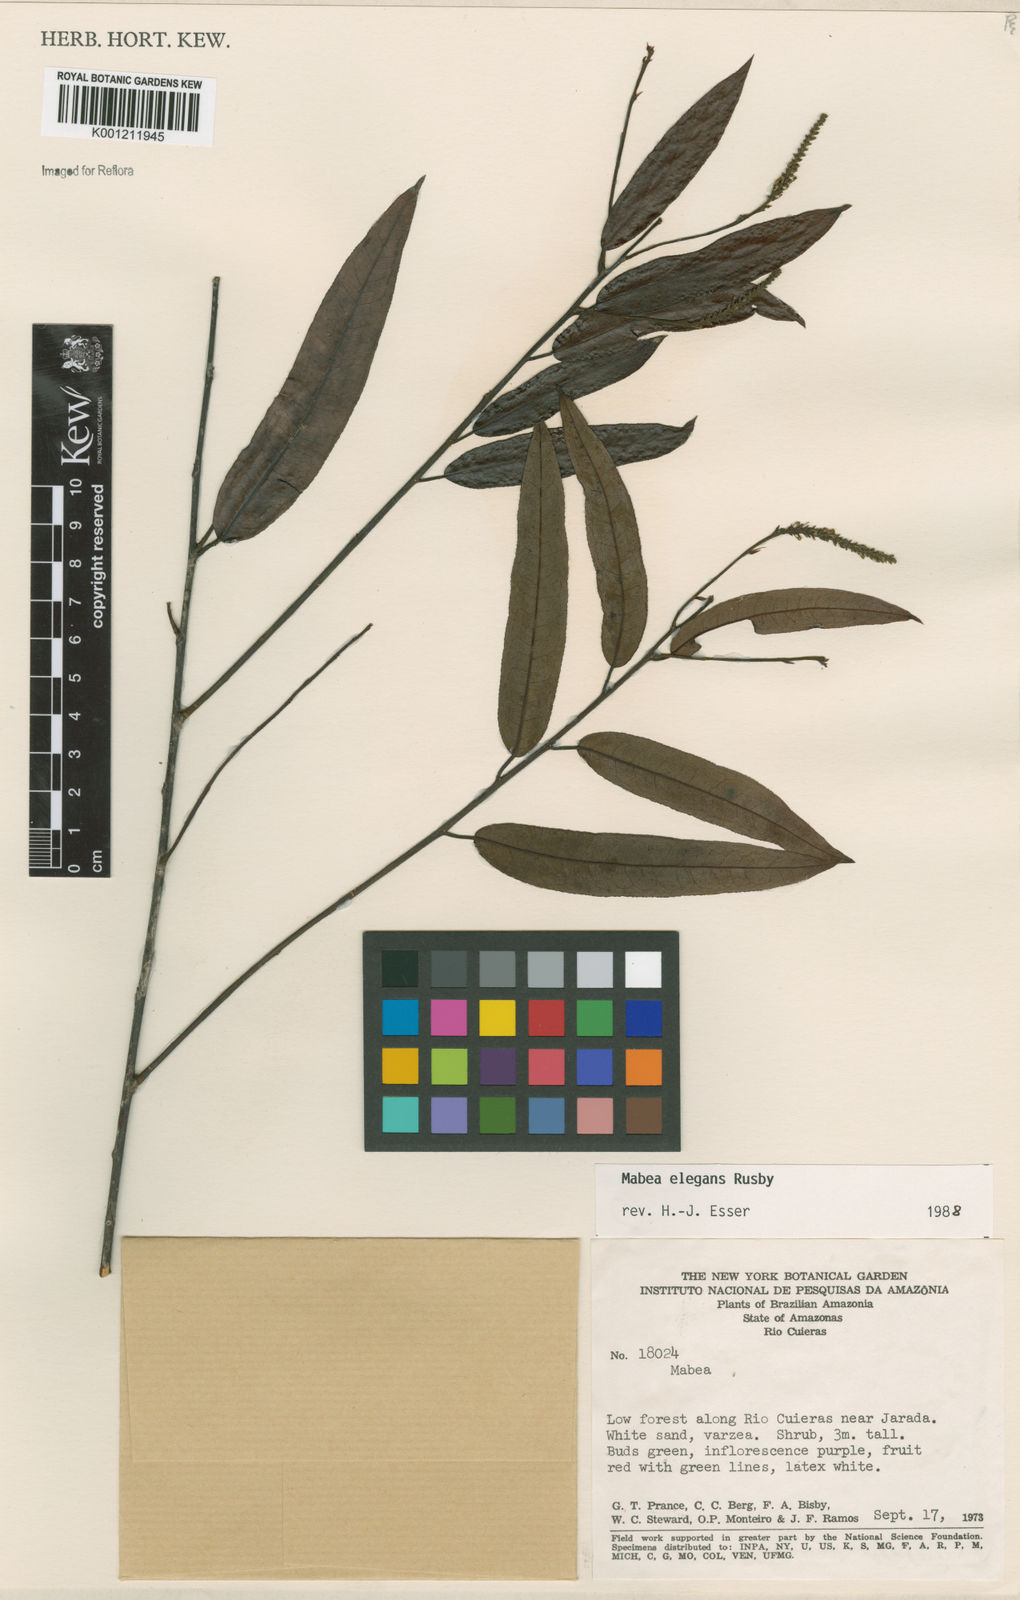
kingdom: Plantae
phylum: Tracheophyta
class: Magnoliopsida
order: Malpighiales
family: Euphorbiaceae
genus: Mabea
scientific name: Mabea elegans
